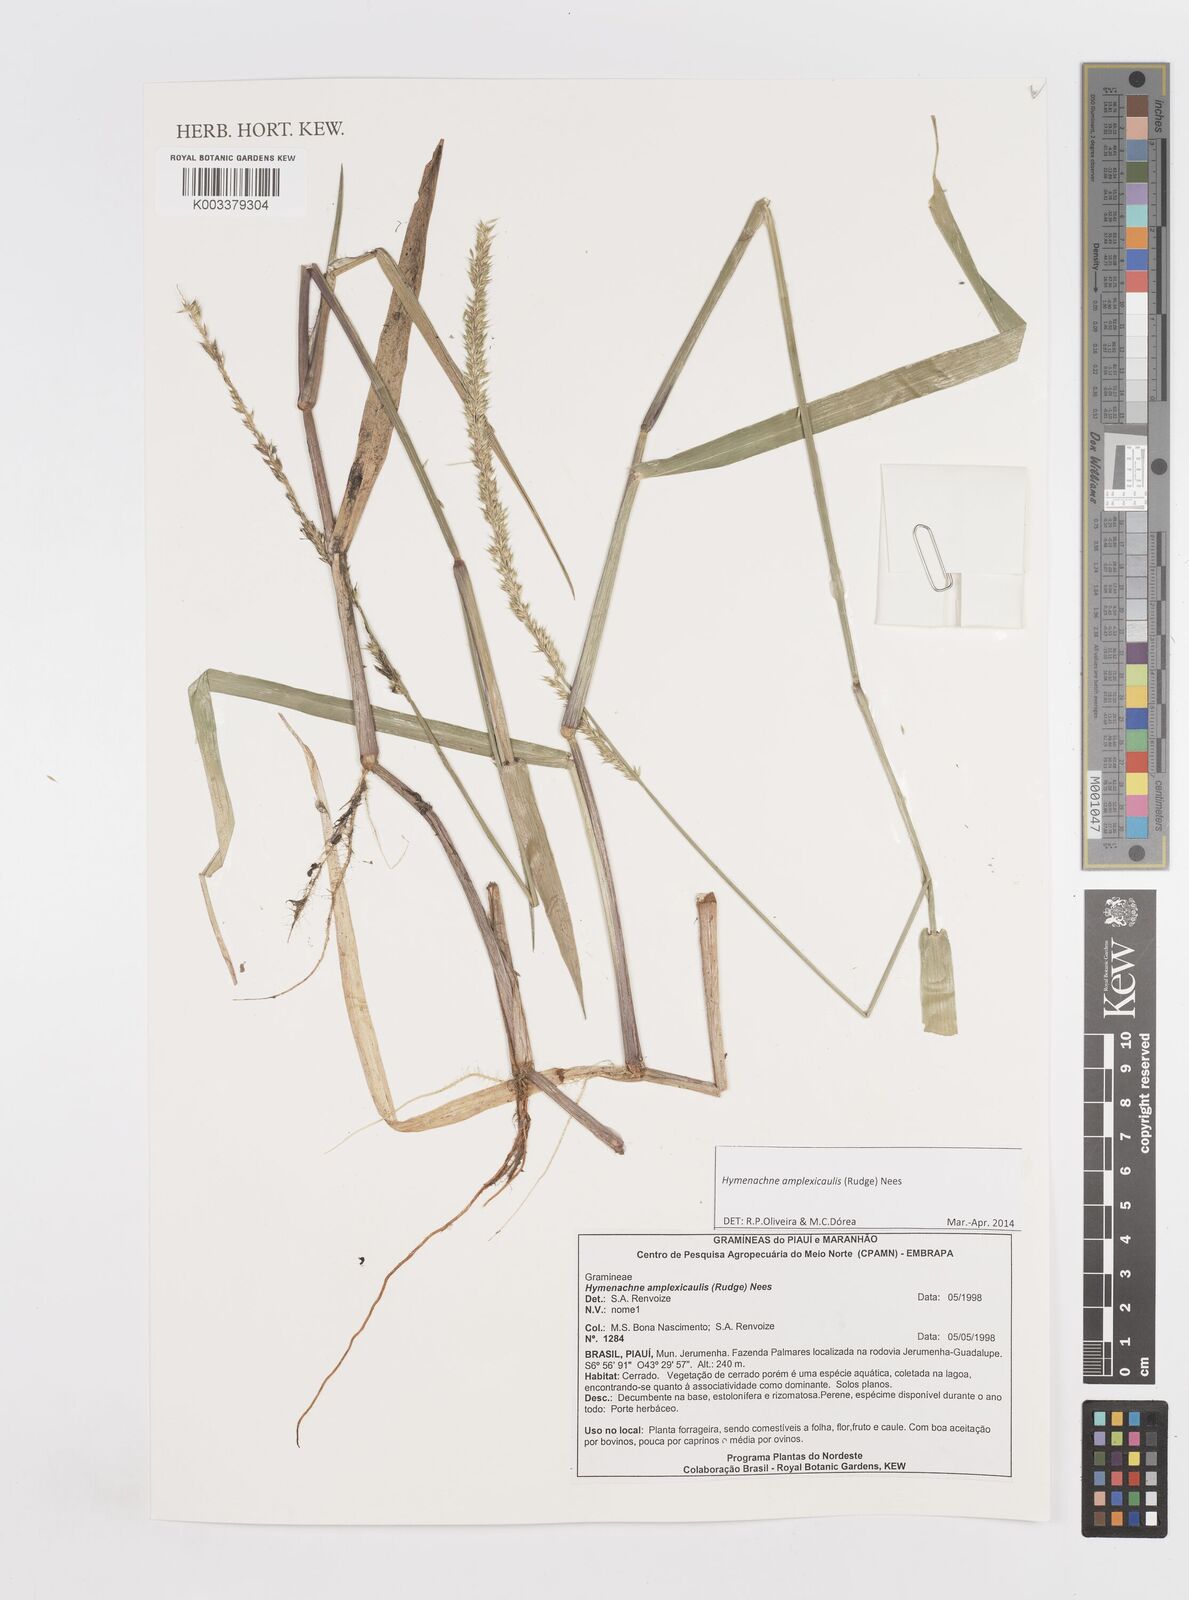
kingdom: Plantae
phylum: Tracheophyta
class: Liliopsida
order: Poales
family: Poaceae
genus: Hymenachne
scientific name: Hymenachne amplexicaulis
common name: Olive hymenachne
